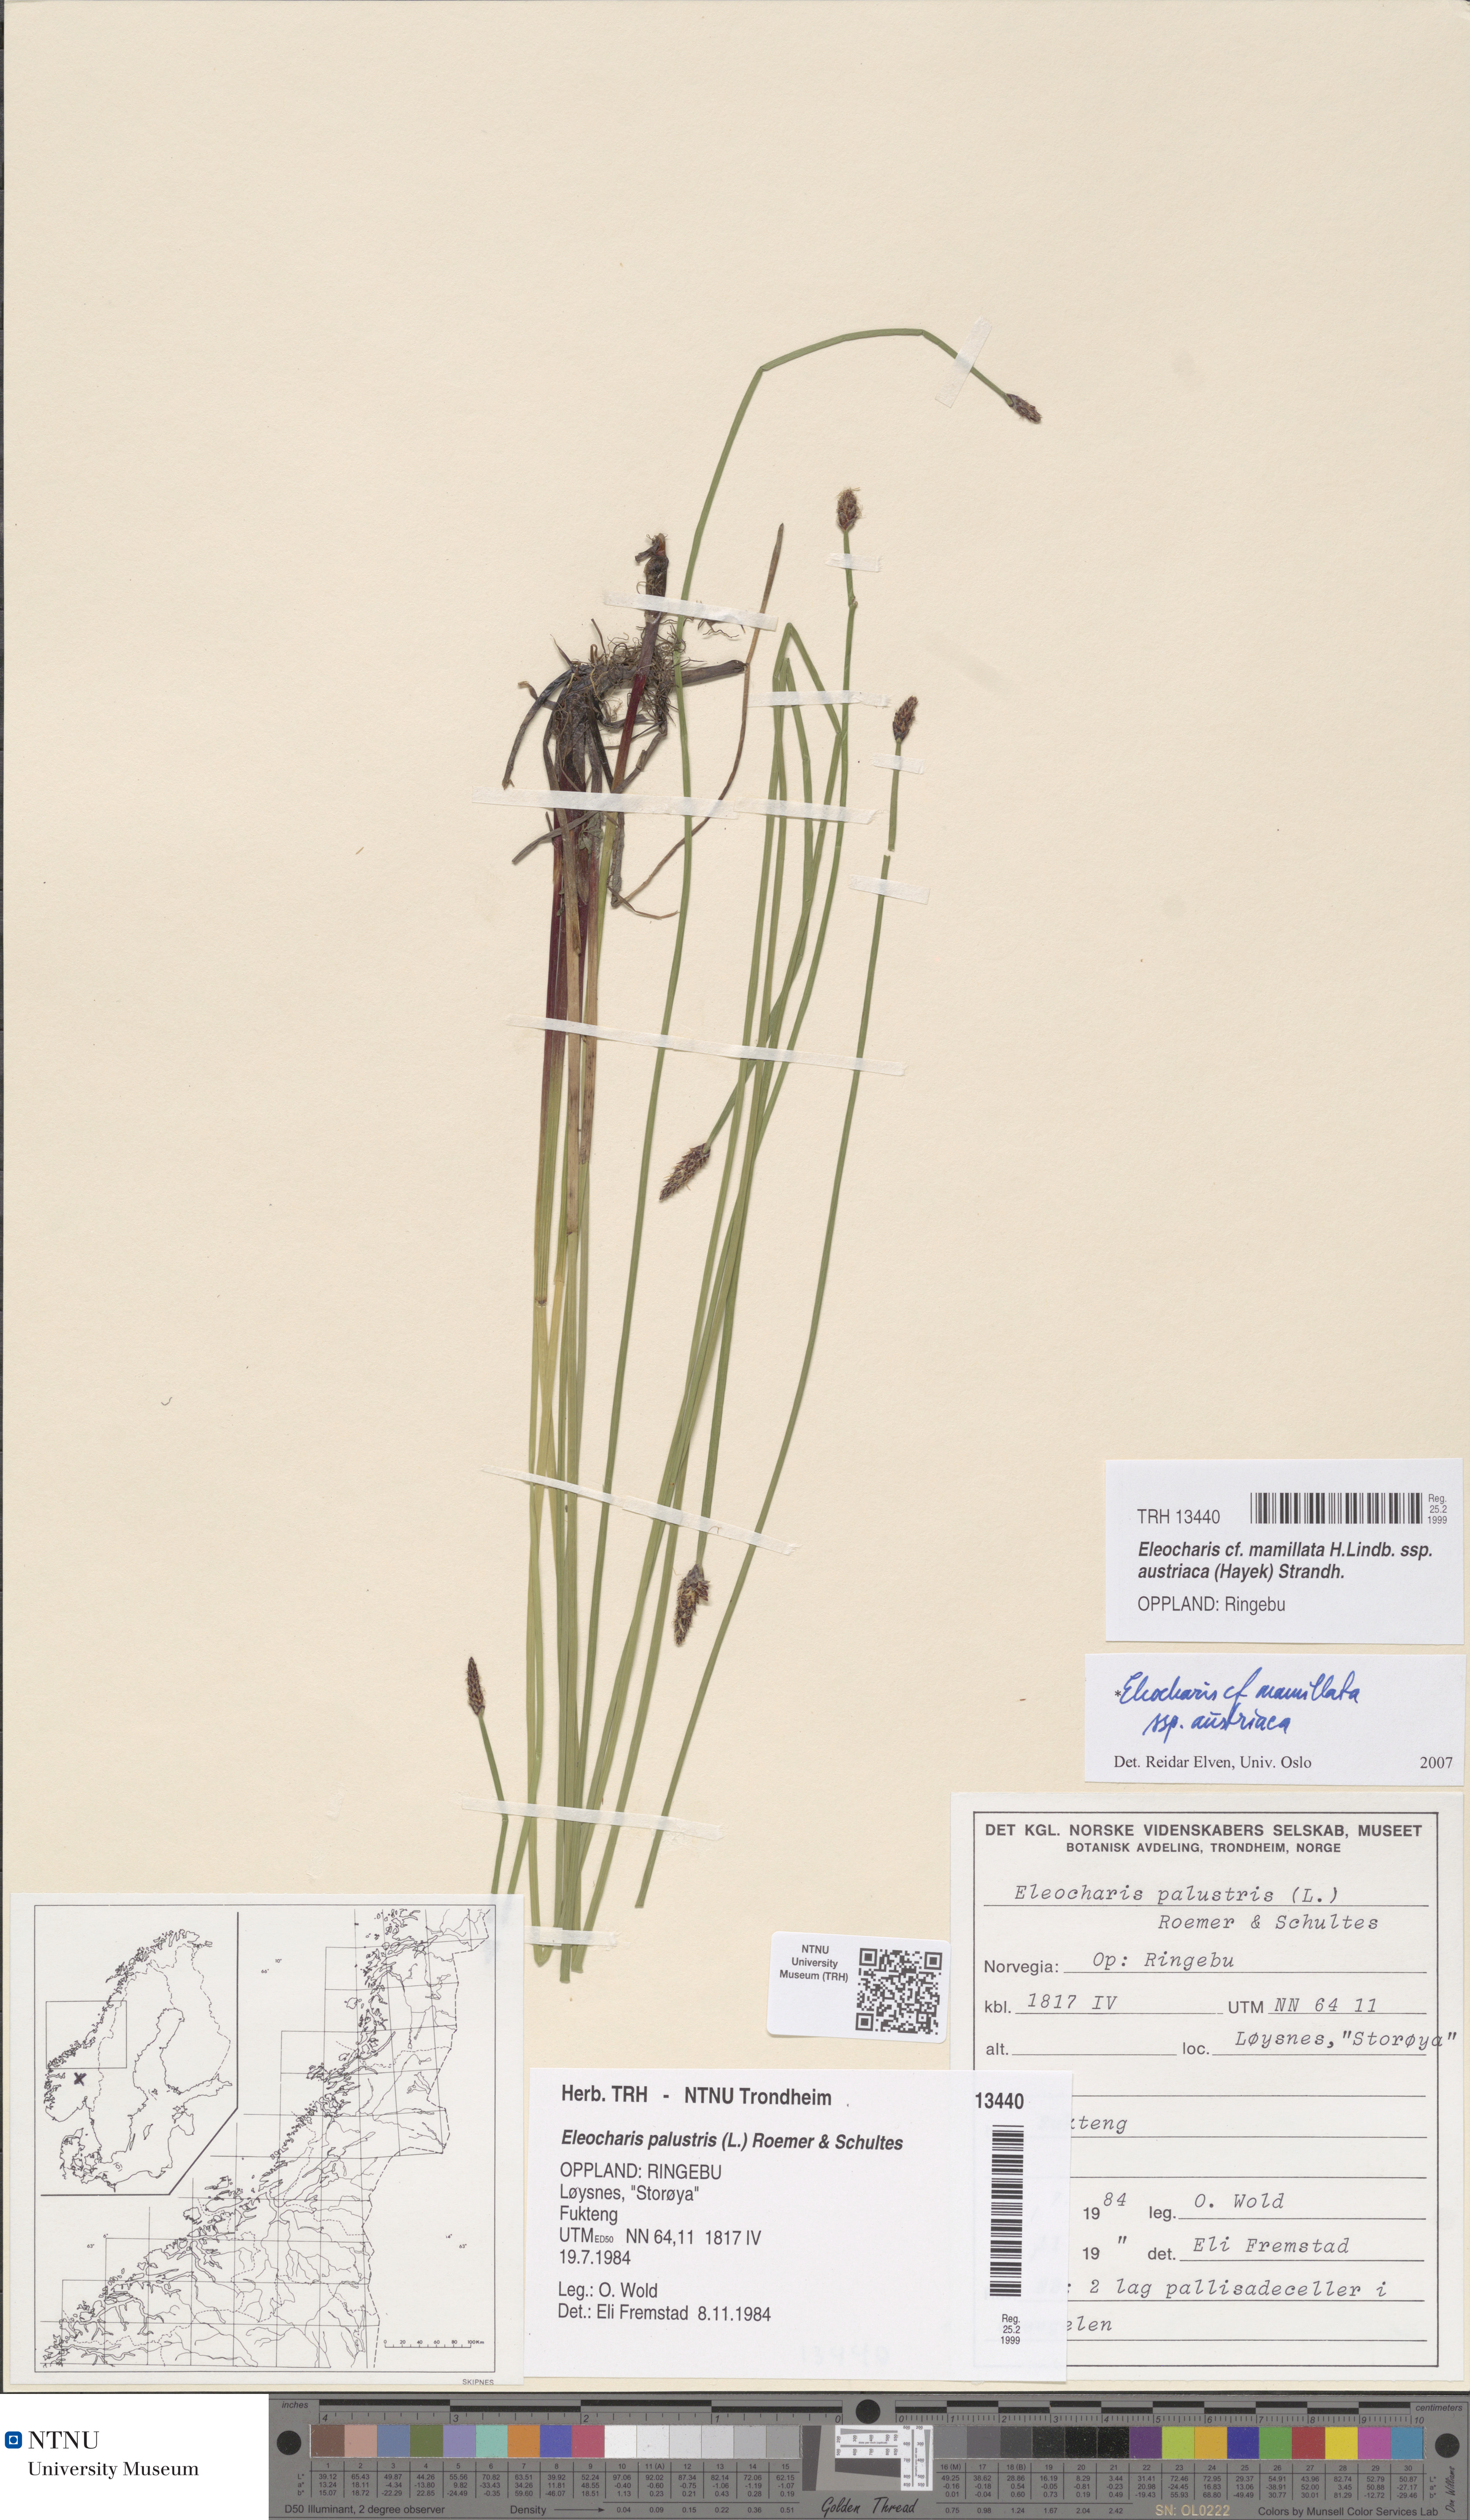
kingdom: Plantae
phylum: Tracheophyta
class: Liliopsida
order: Poales
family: Cyperaceae
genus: Eleocharis
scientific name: Eleocharis mamillata
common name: Northern spike-rush
